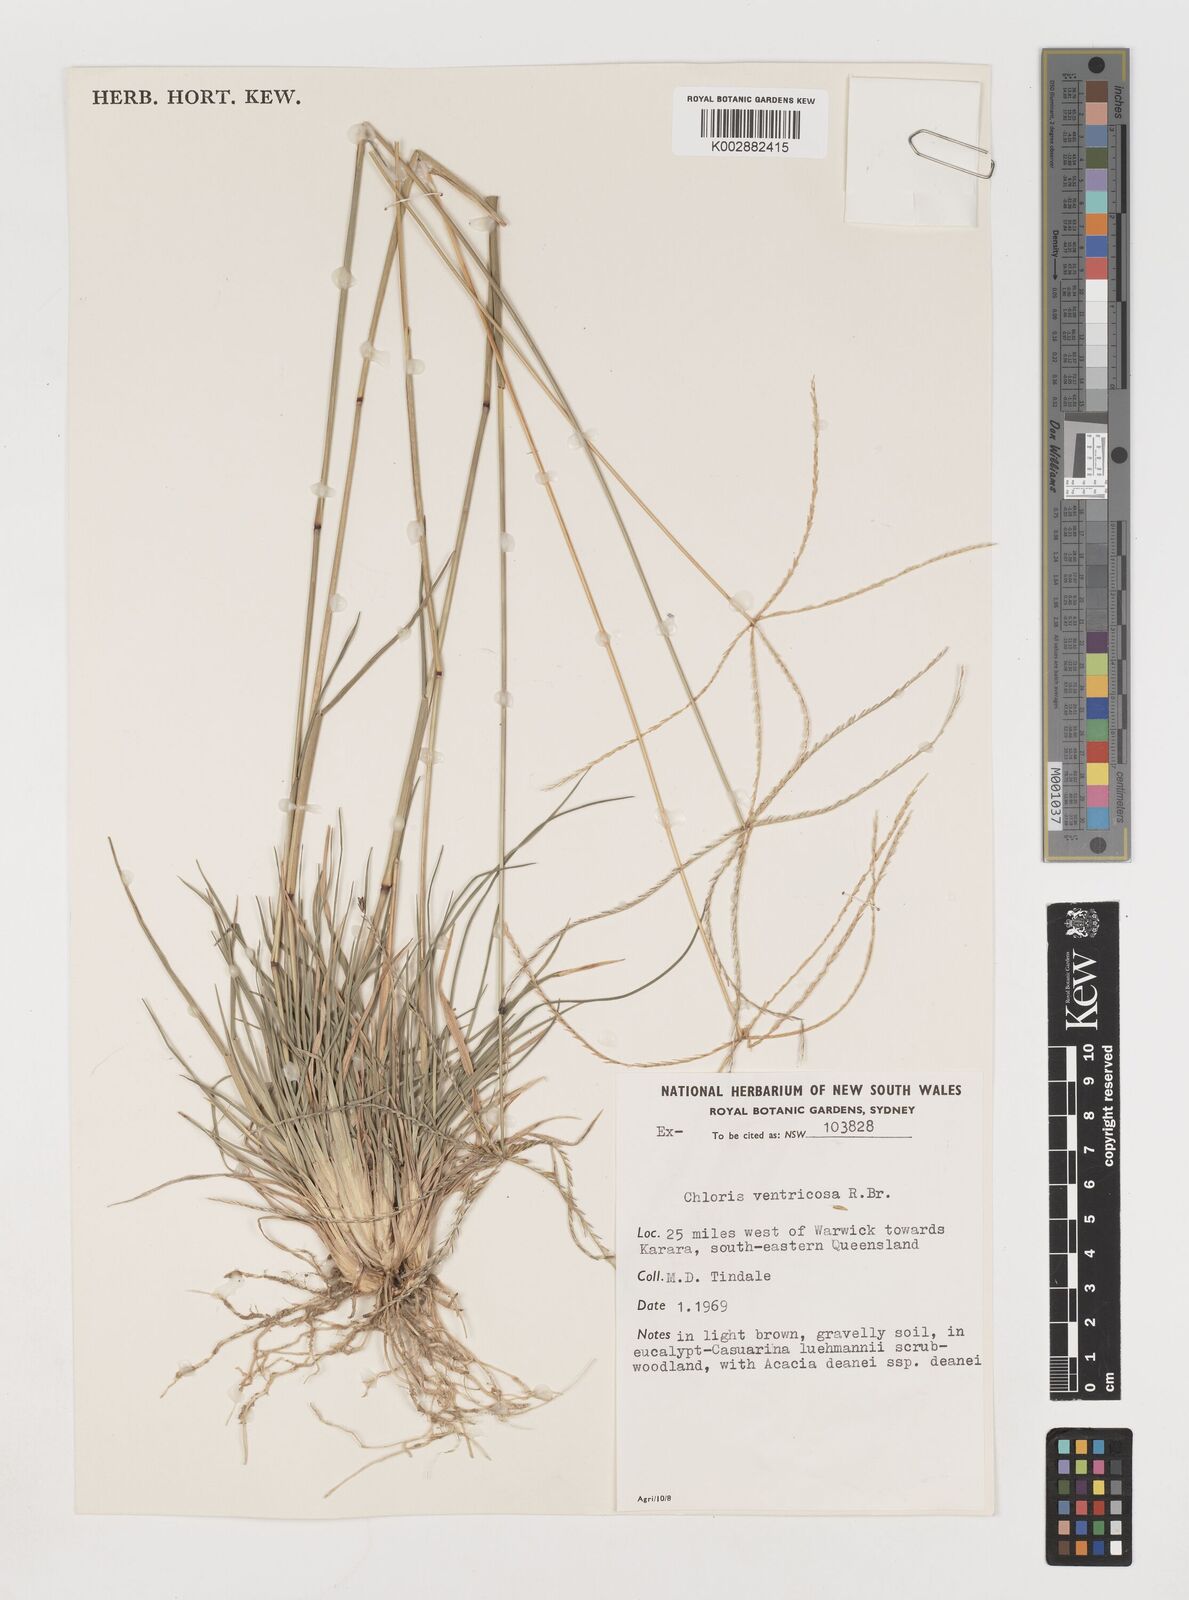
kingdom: Plantae
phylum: Tracheophyta
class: Liliopsida
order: Poales
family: Poaceae
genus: Chloris
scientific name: Chloris ventricosa
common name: Australian windmill grass
